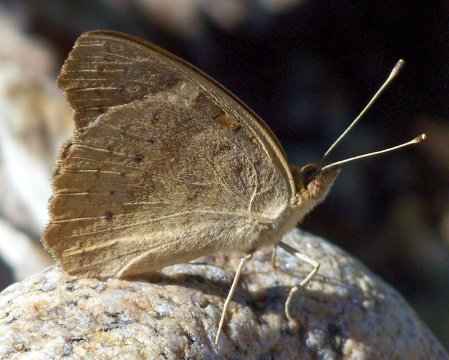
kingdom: Animalia
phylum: Arthropoda
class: Insecta
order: Lepidoptera
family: Nymphalidae
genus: Junonia
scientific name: Junonia coenia
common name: Common Buckeye
